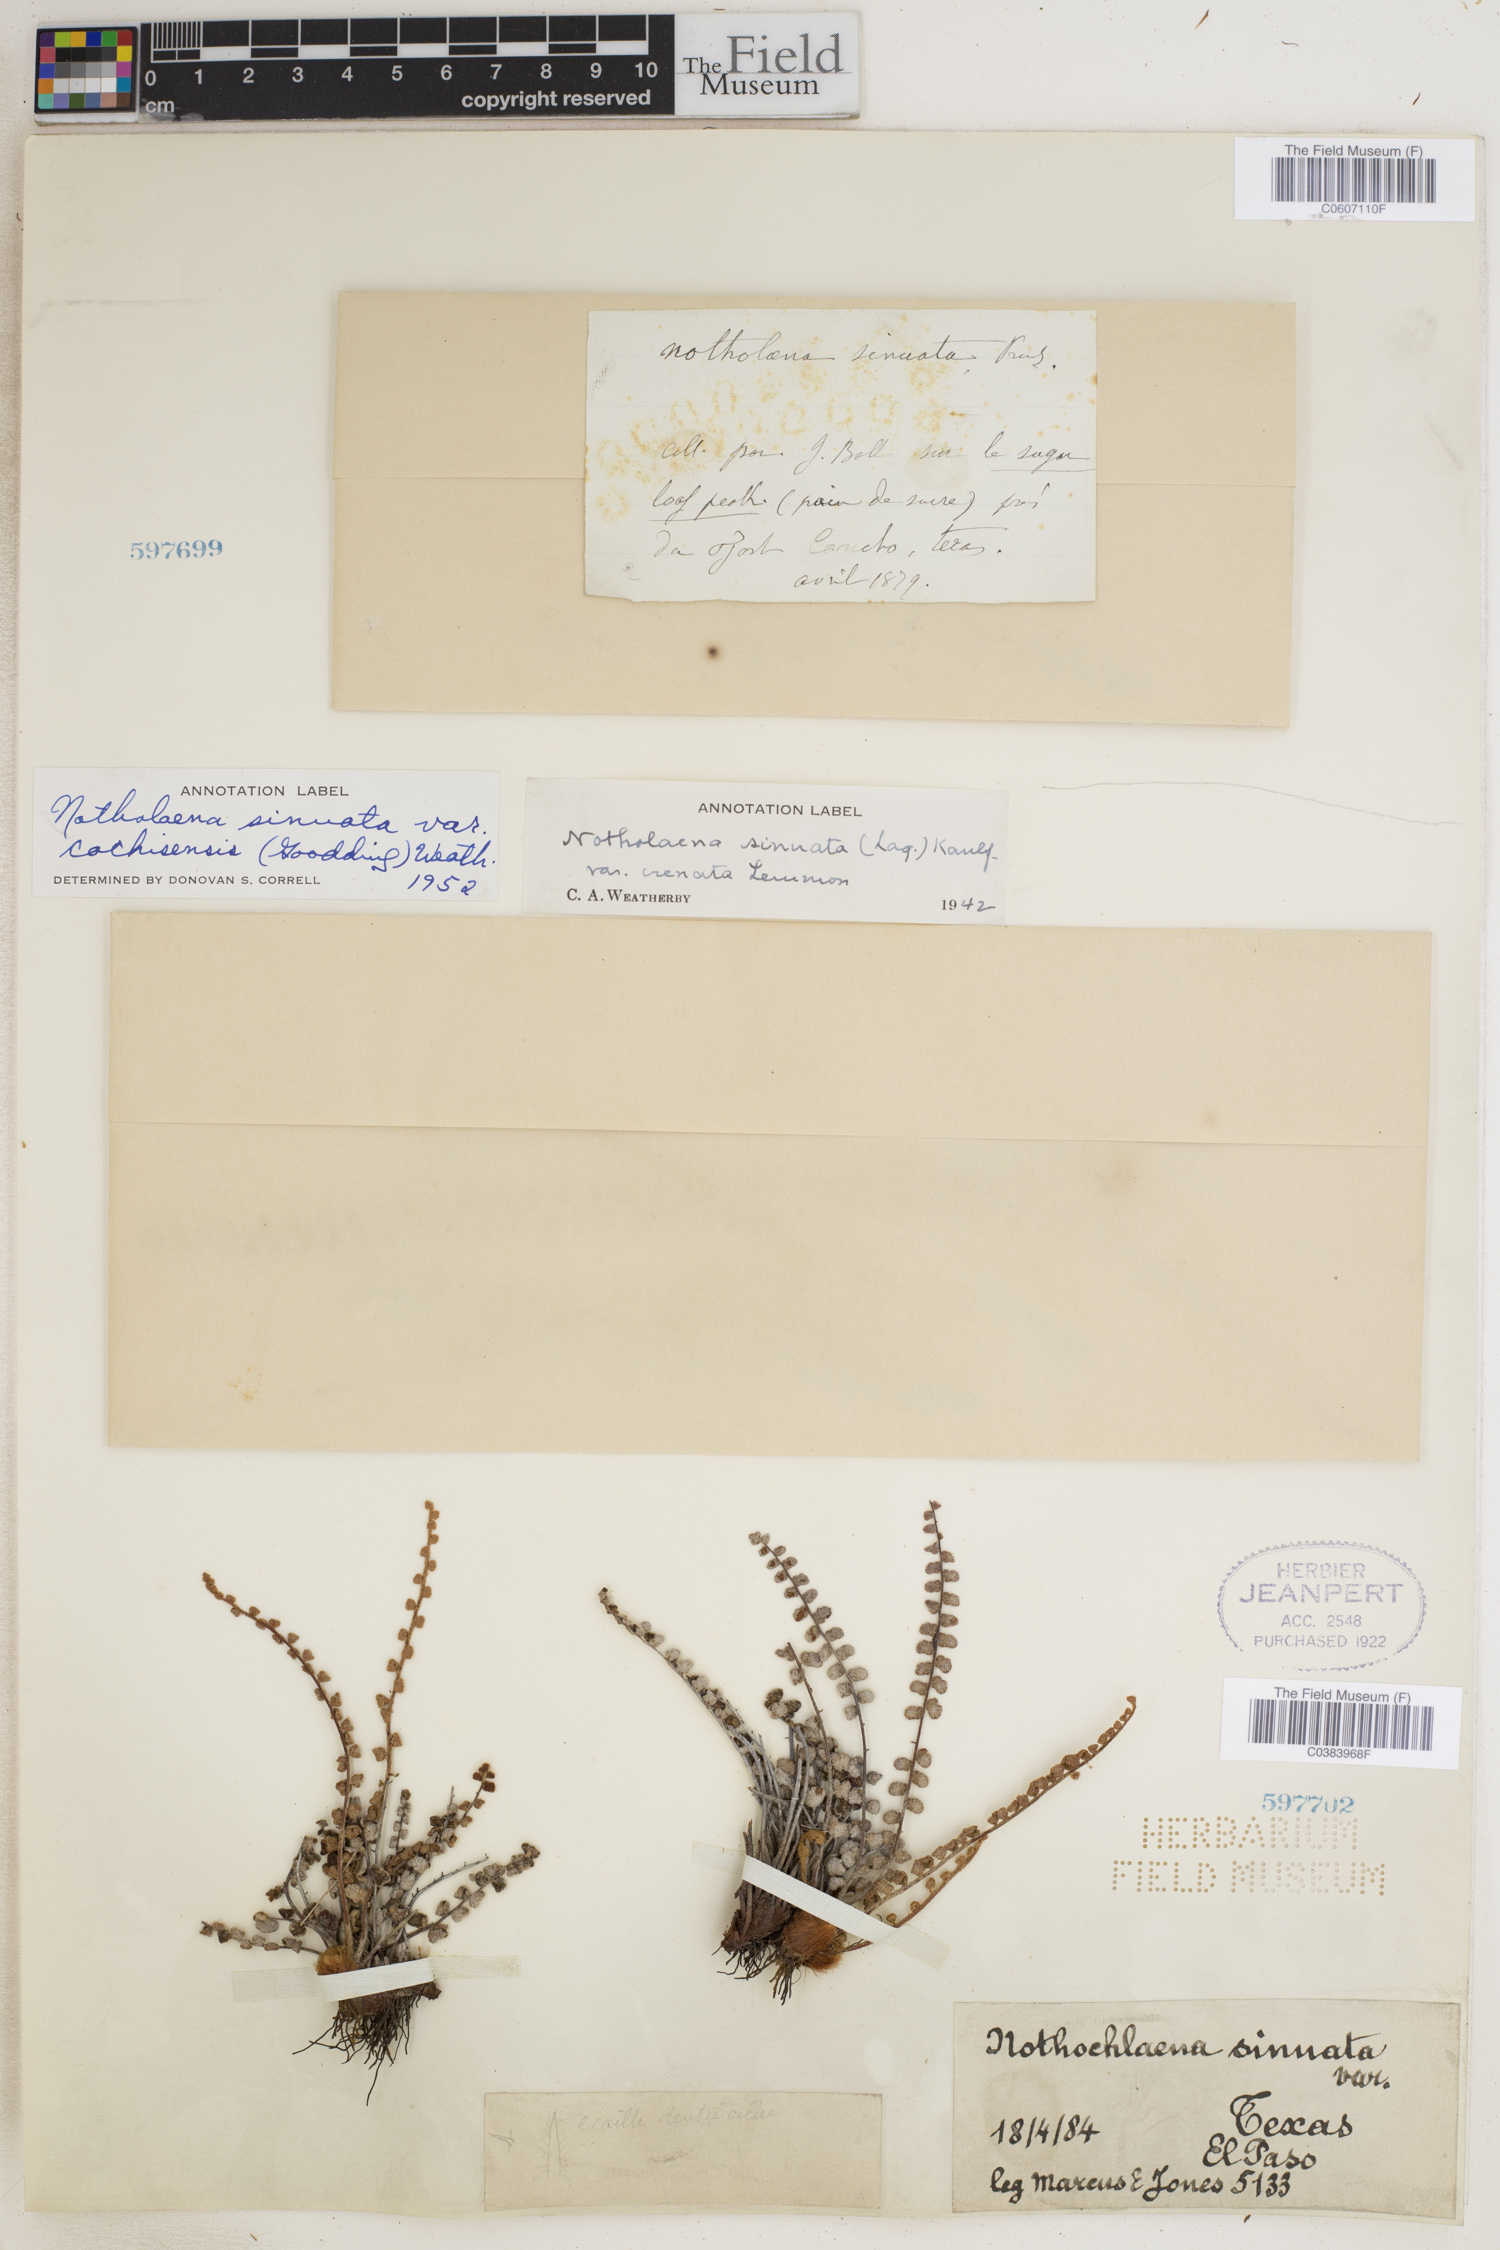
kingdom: Plantae
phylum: Tracheophyta
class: Polypodiopsida
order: Polypodiales
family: Pteridaceae
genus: Astrolepis
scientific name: Astrolepis cochisensis
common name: Scaly cloak fern
